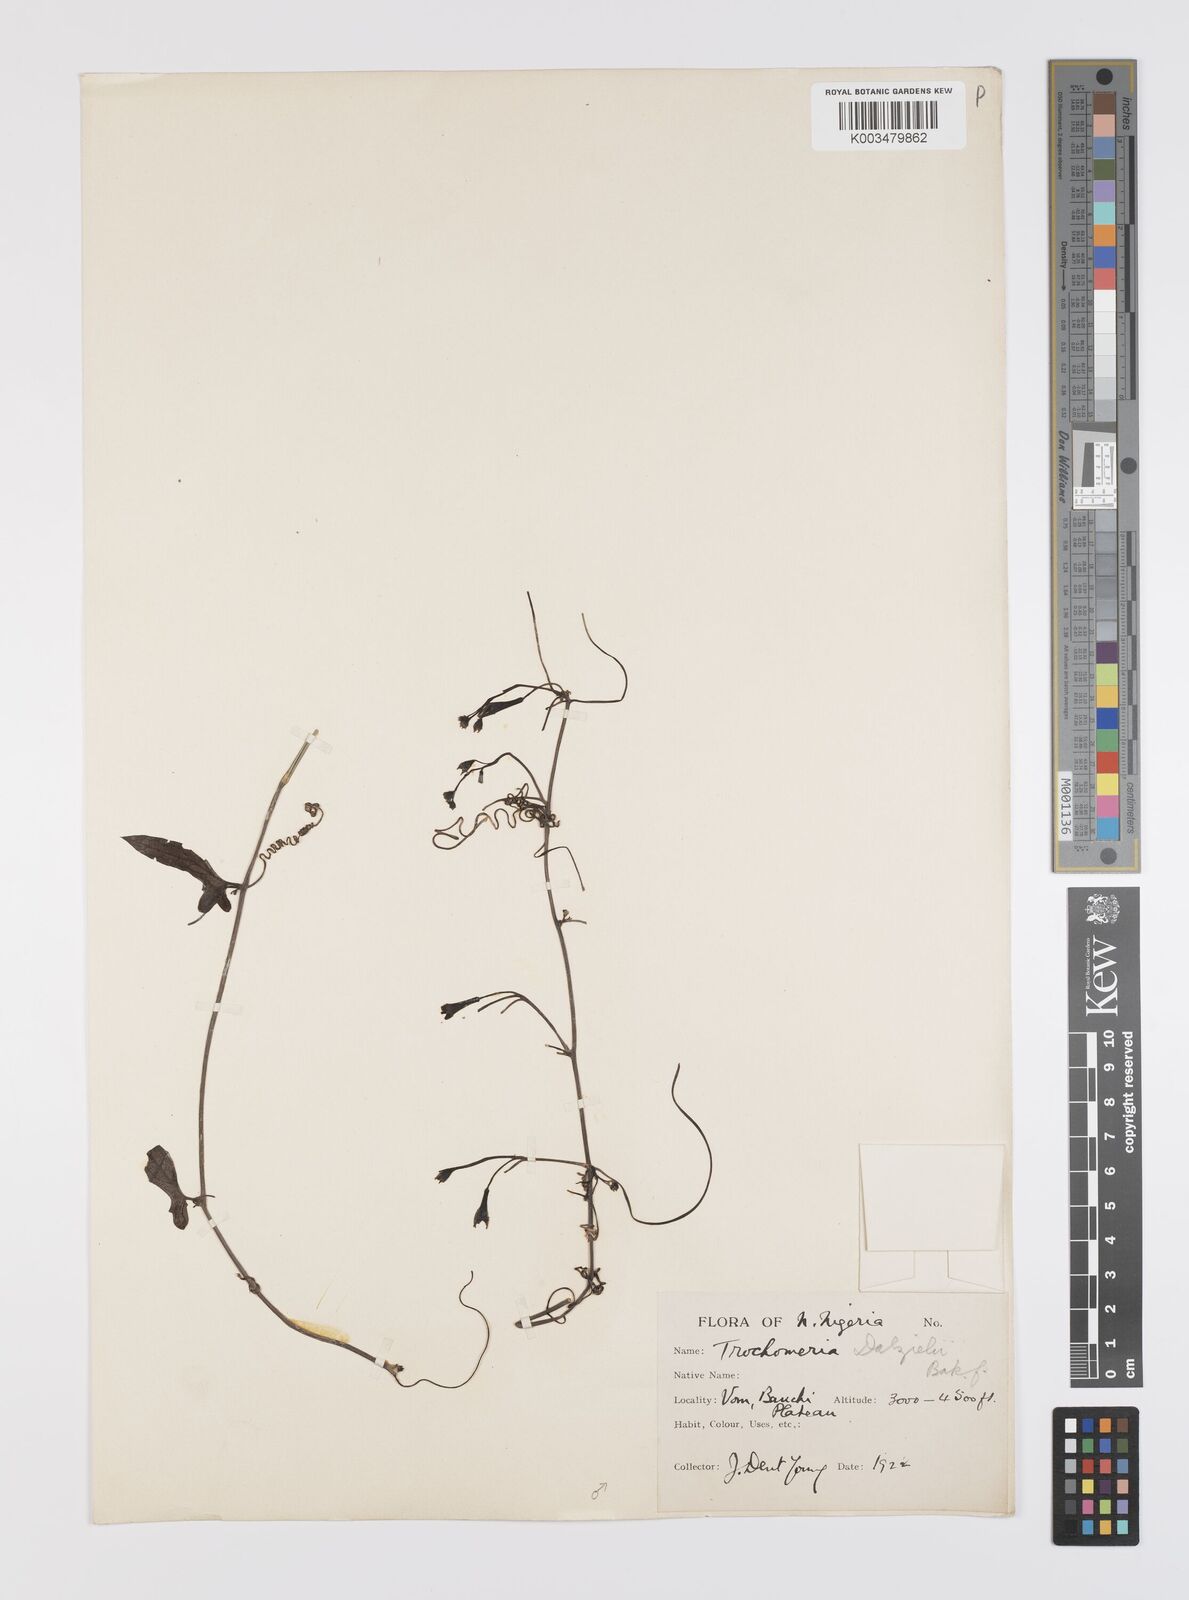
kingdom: Plantae
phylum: Tracheophyta
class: Magnoliopsida
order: Cucurbitales
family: Cucurbitaceae
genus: Trochomeria
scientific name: Trochomeria macrocarpa
